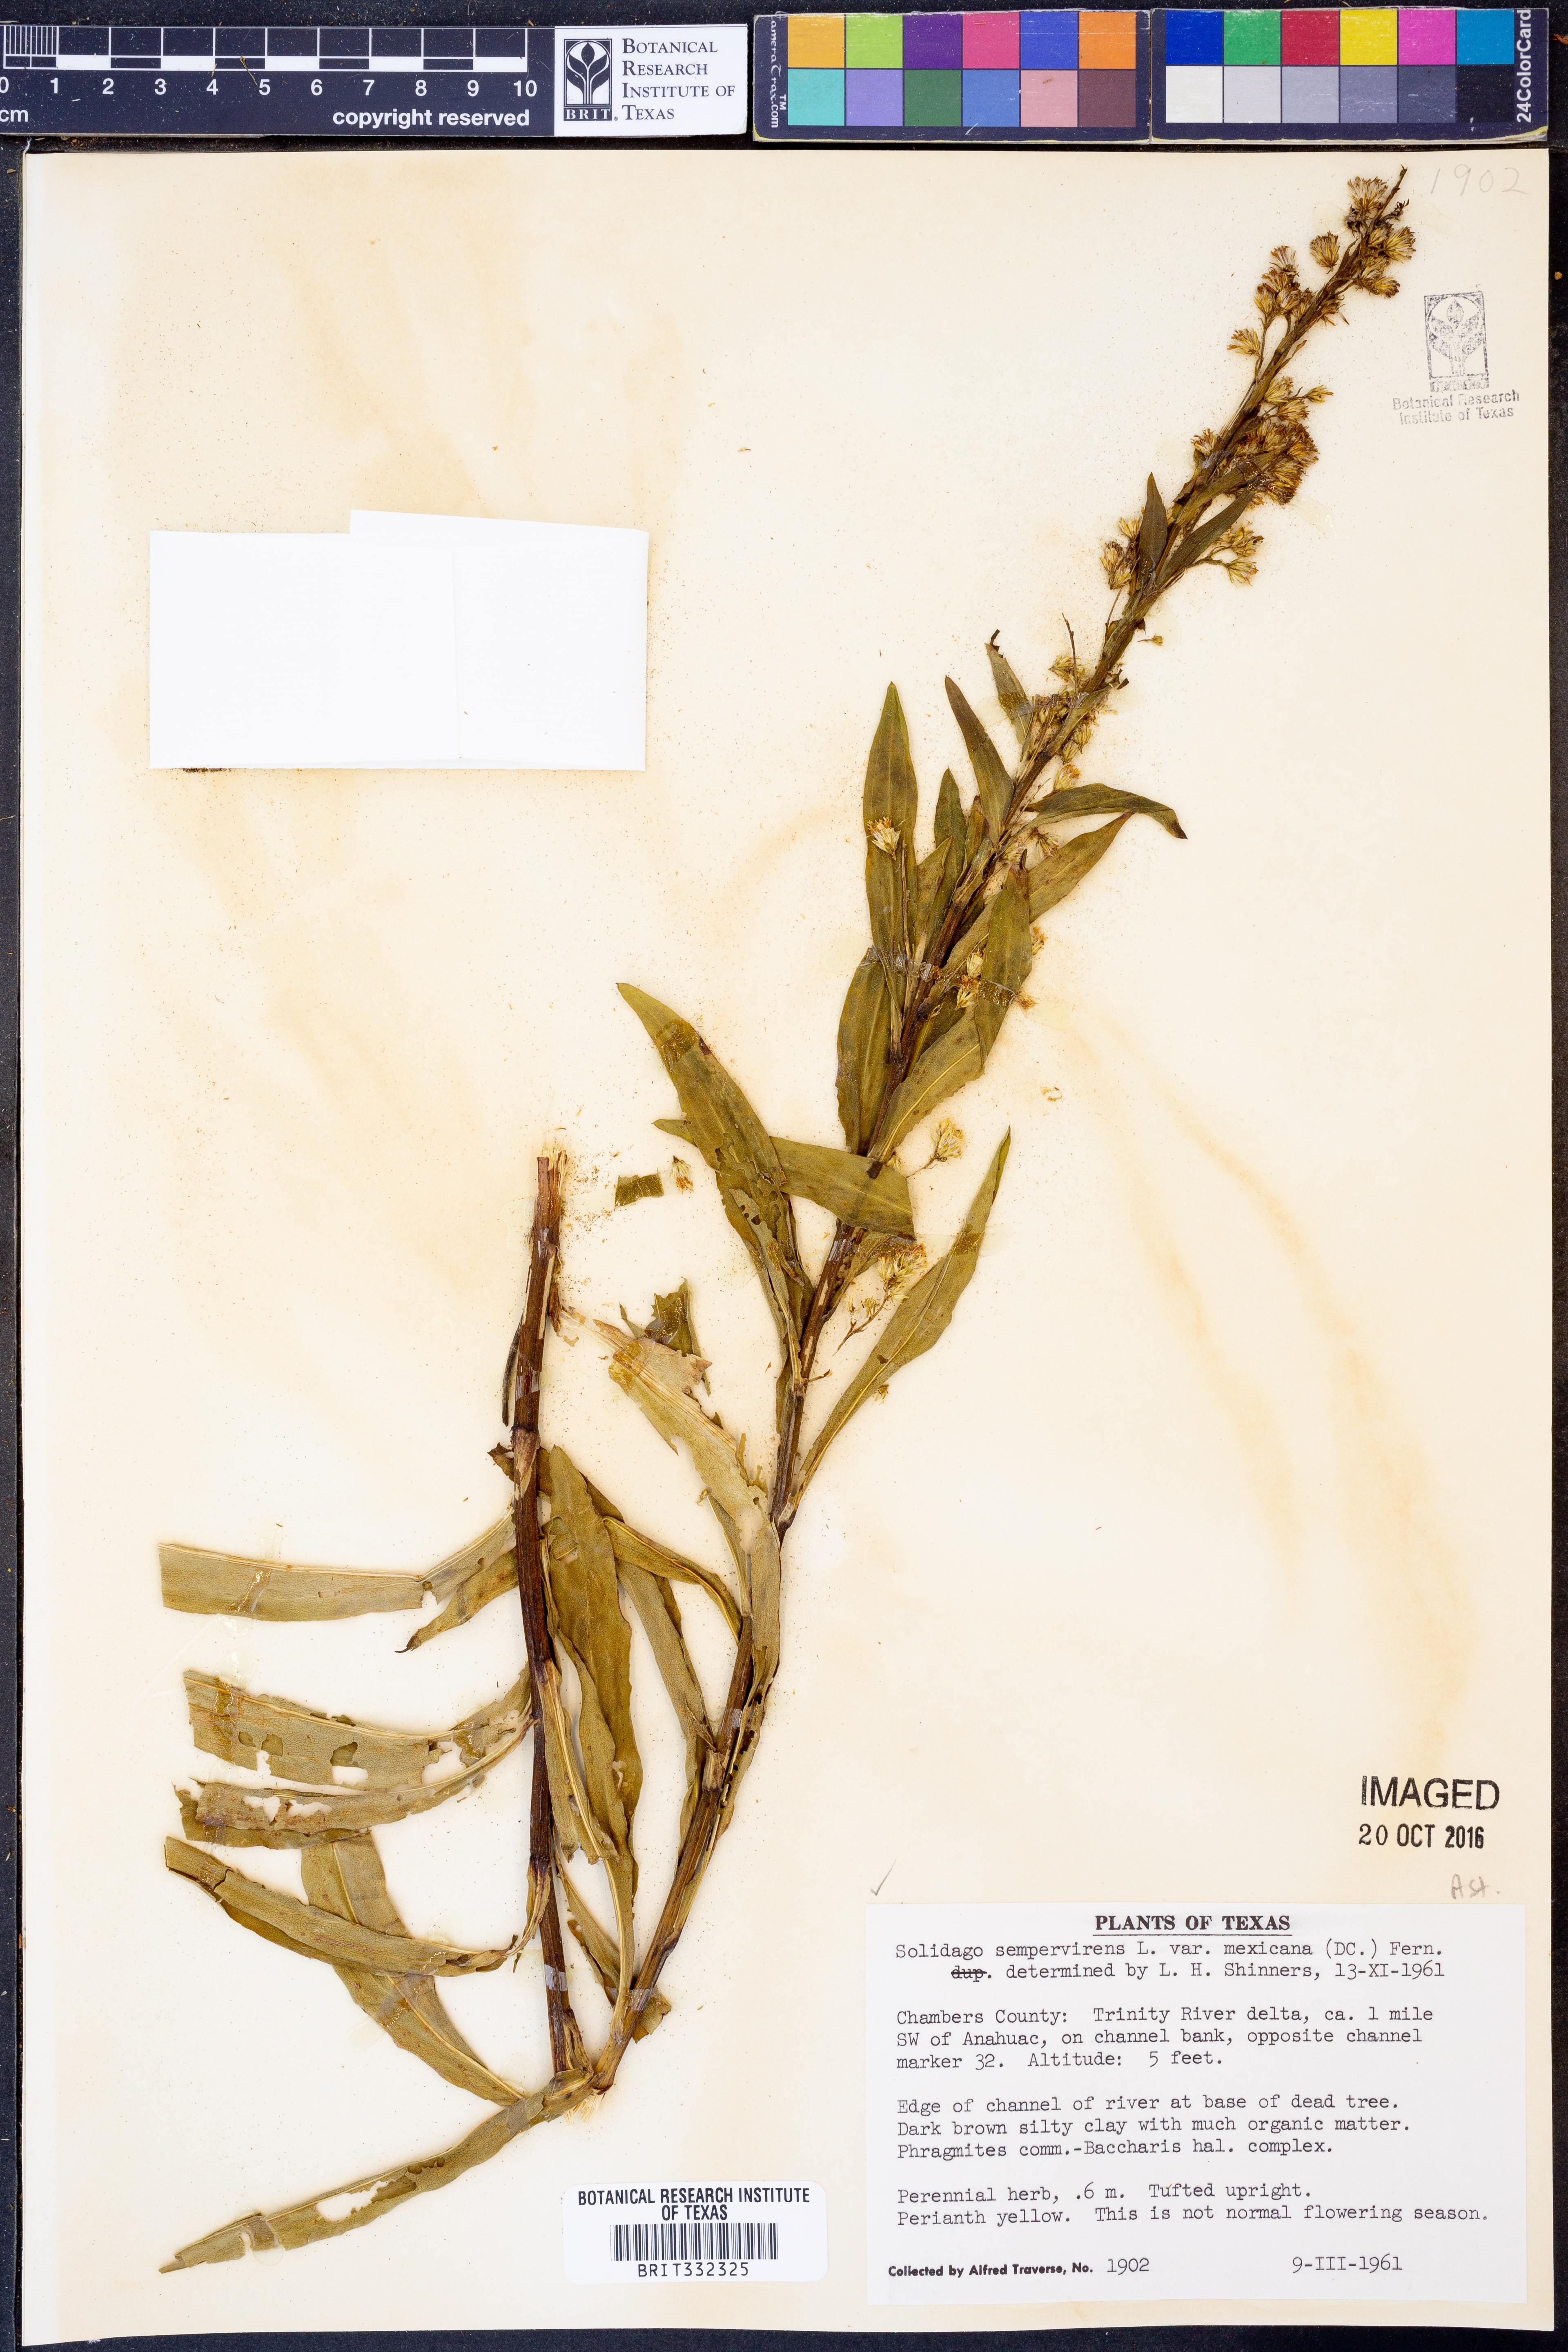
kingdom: Plantae
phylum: Tracheophyta
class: Magnoliopsida
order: Asterales
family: Asteraceae
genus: Solidago
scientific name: Solidago mexicana
